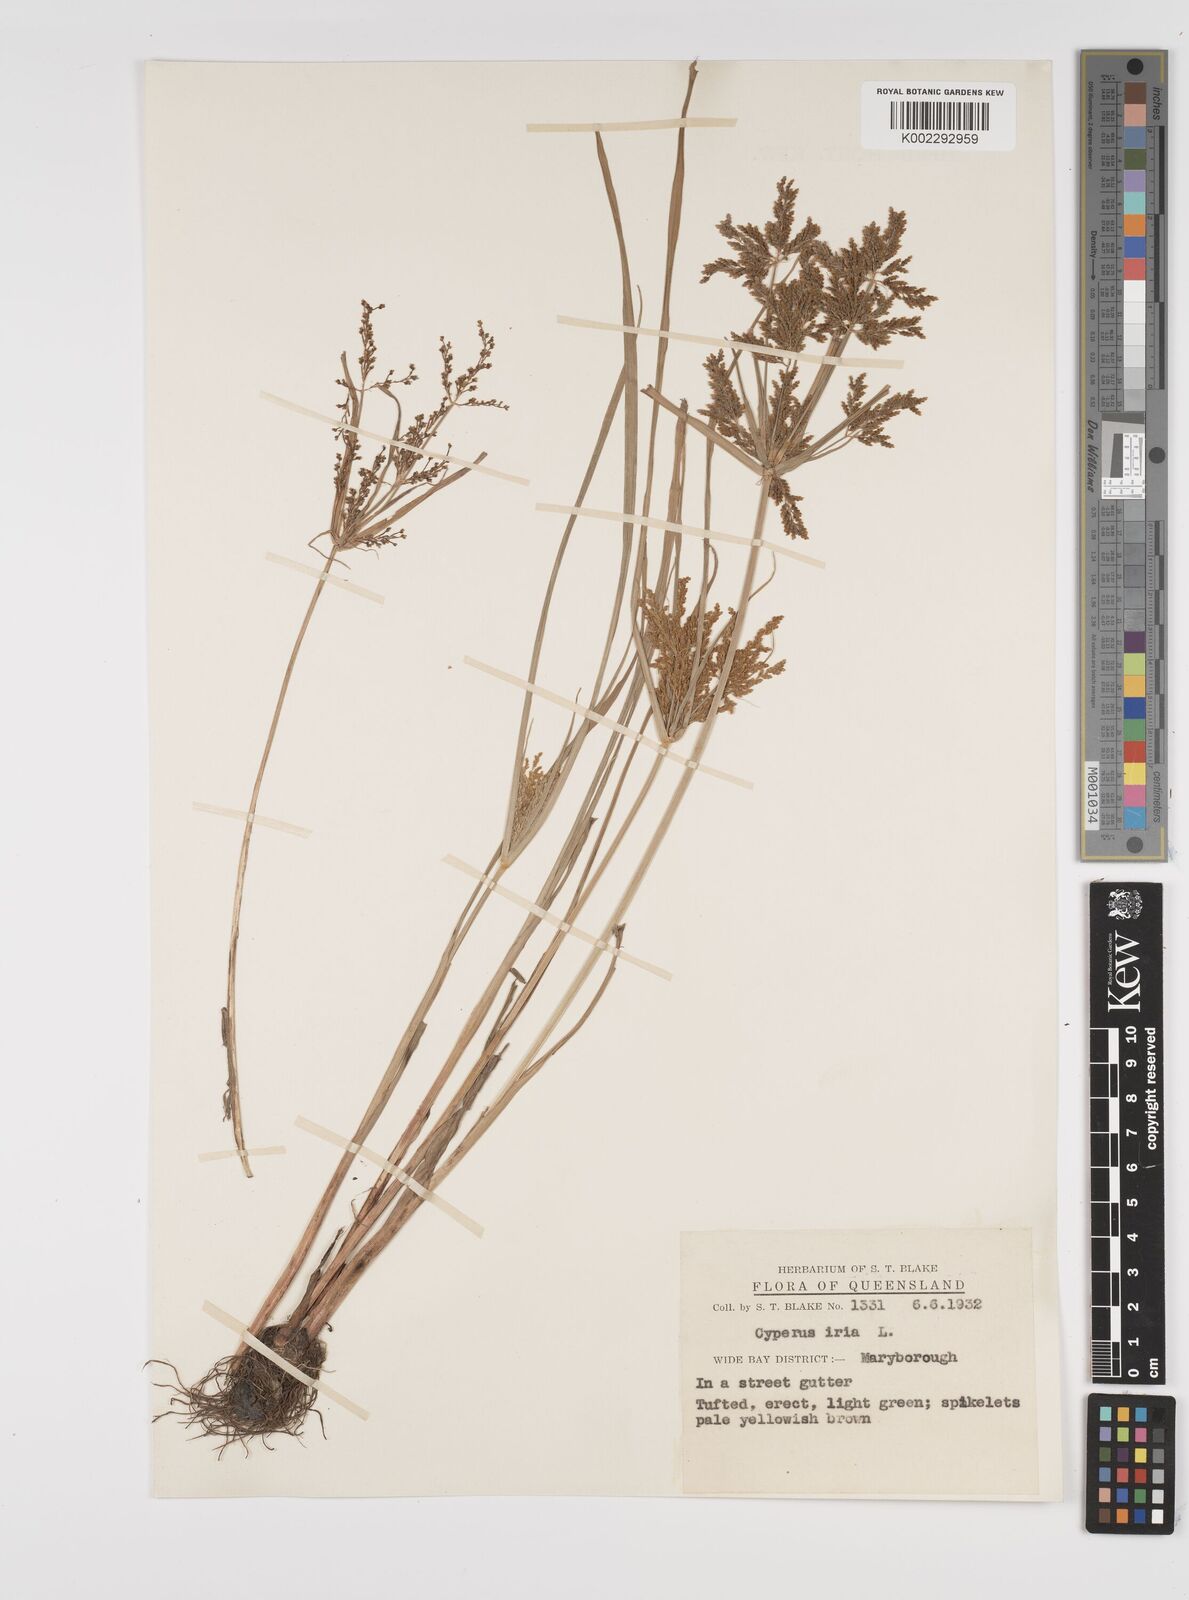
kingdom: Plantae
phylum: Tracheophyta
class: Liliopsida
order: Poales
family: Cyperaceae
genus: Cyperus
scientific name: Cyperus iria
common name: Ricefield flatsedge
